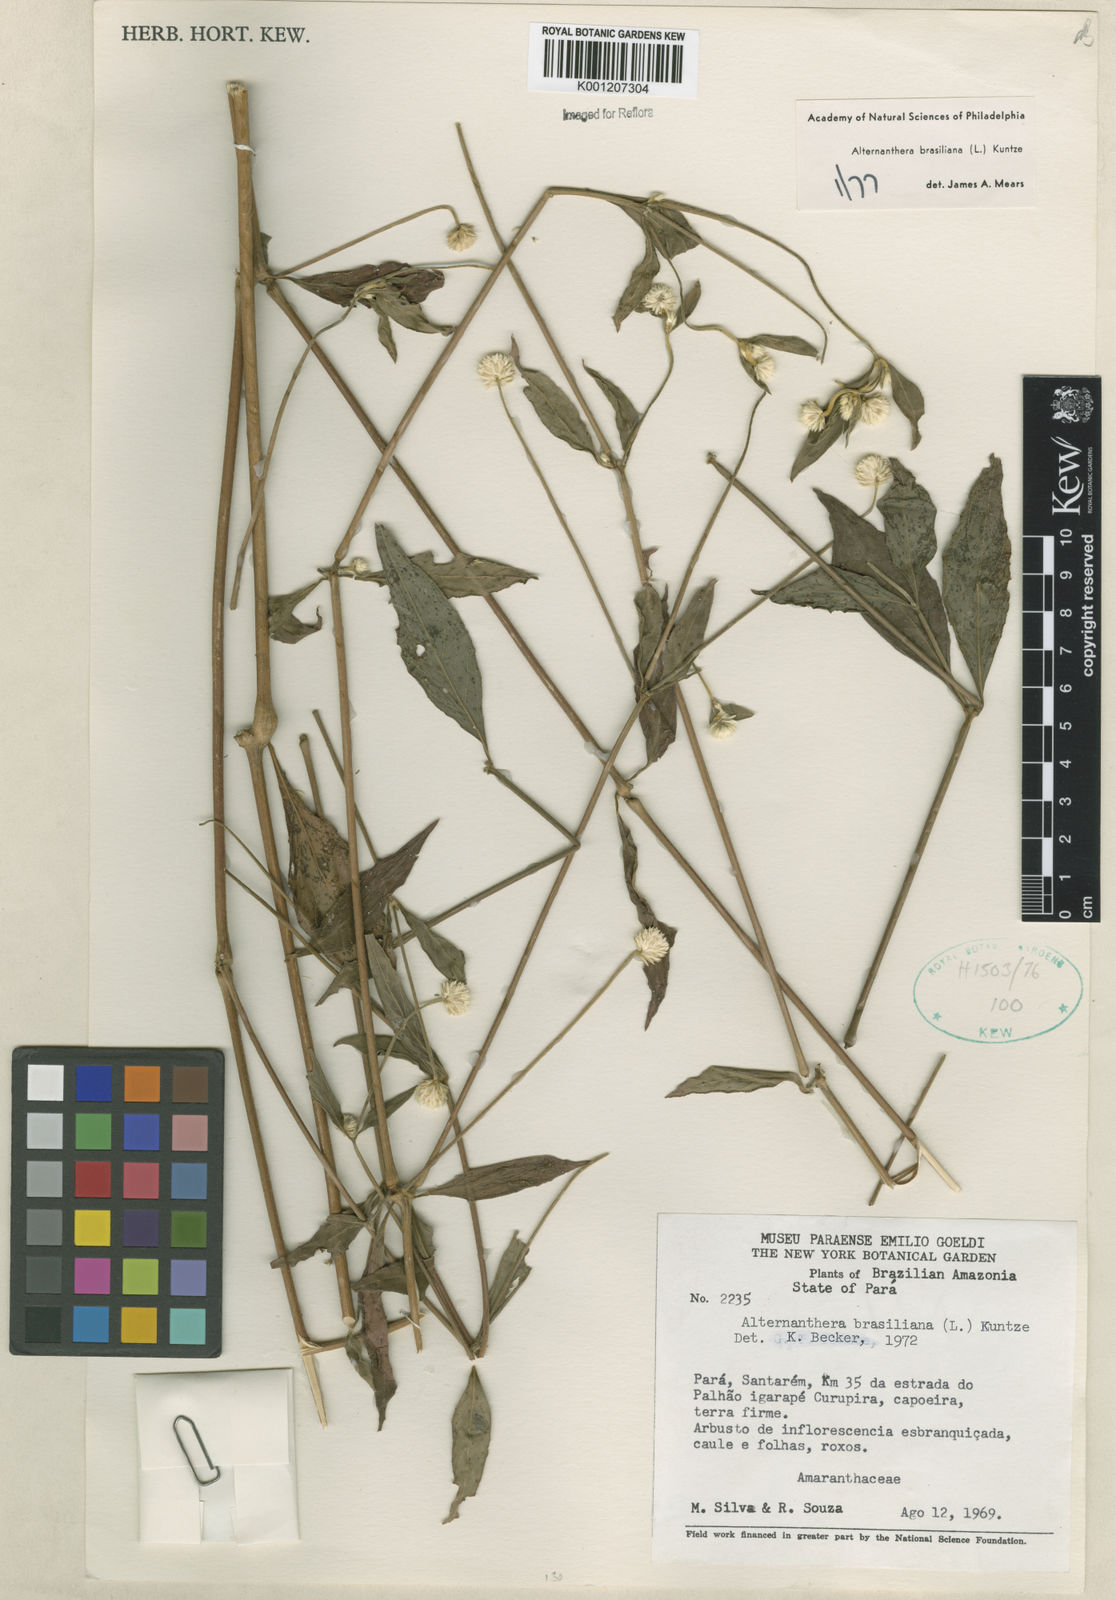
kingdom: Plantae
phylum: Tracheophyta
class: Magnoliopsida
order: Caryophyllales
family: Amaranthaceae
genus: Alternanthera
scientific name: Alternanthera brasiliana
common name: Brazilian joyweed
